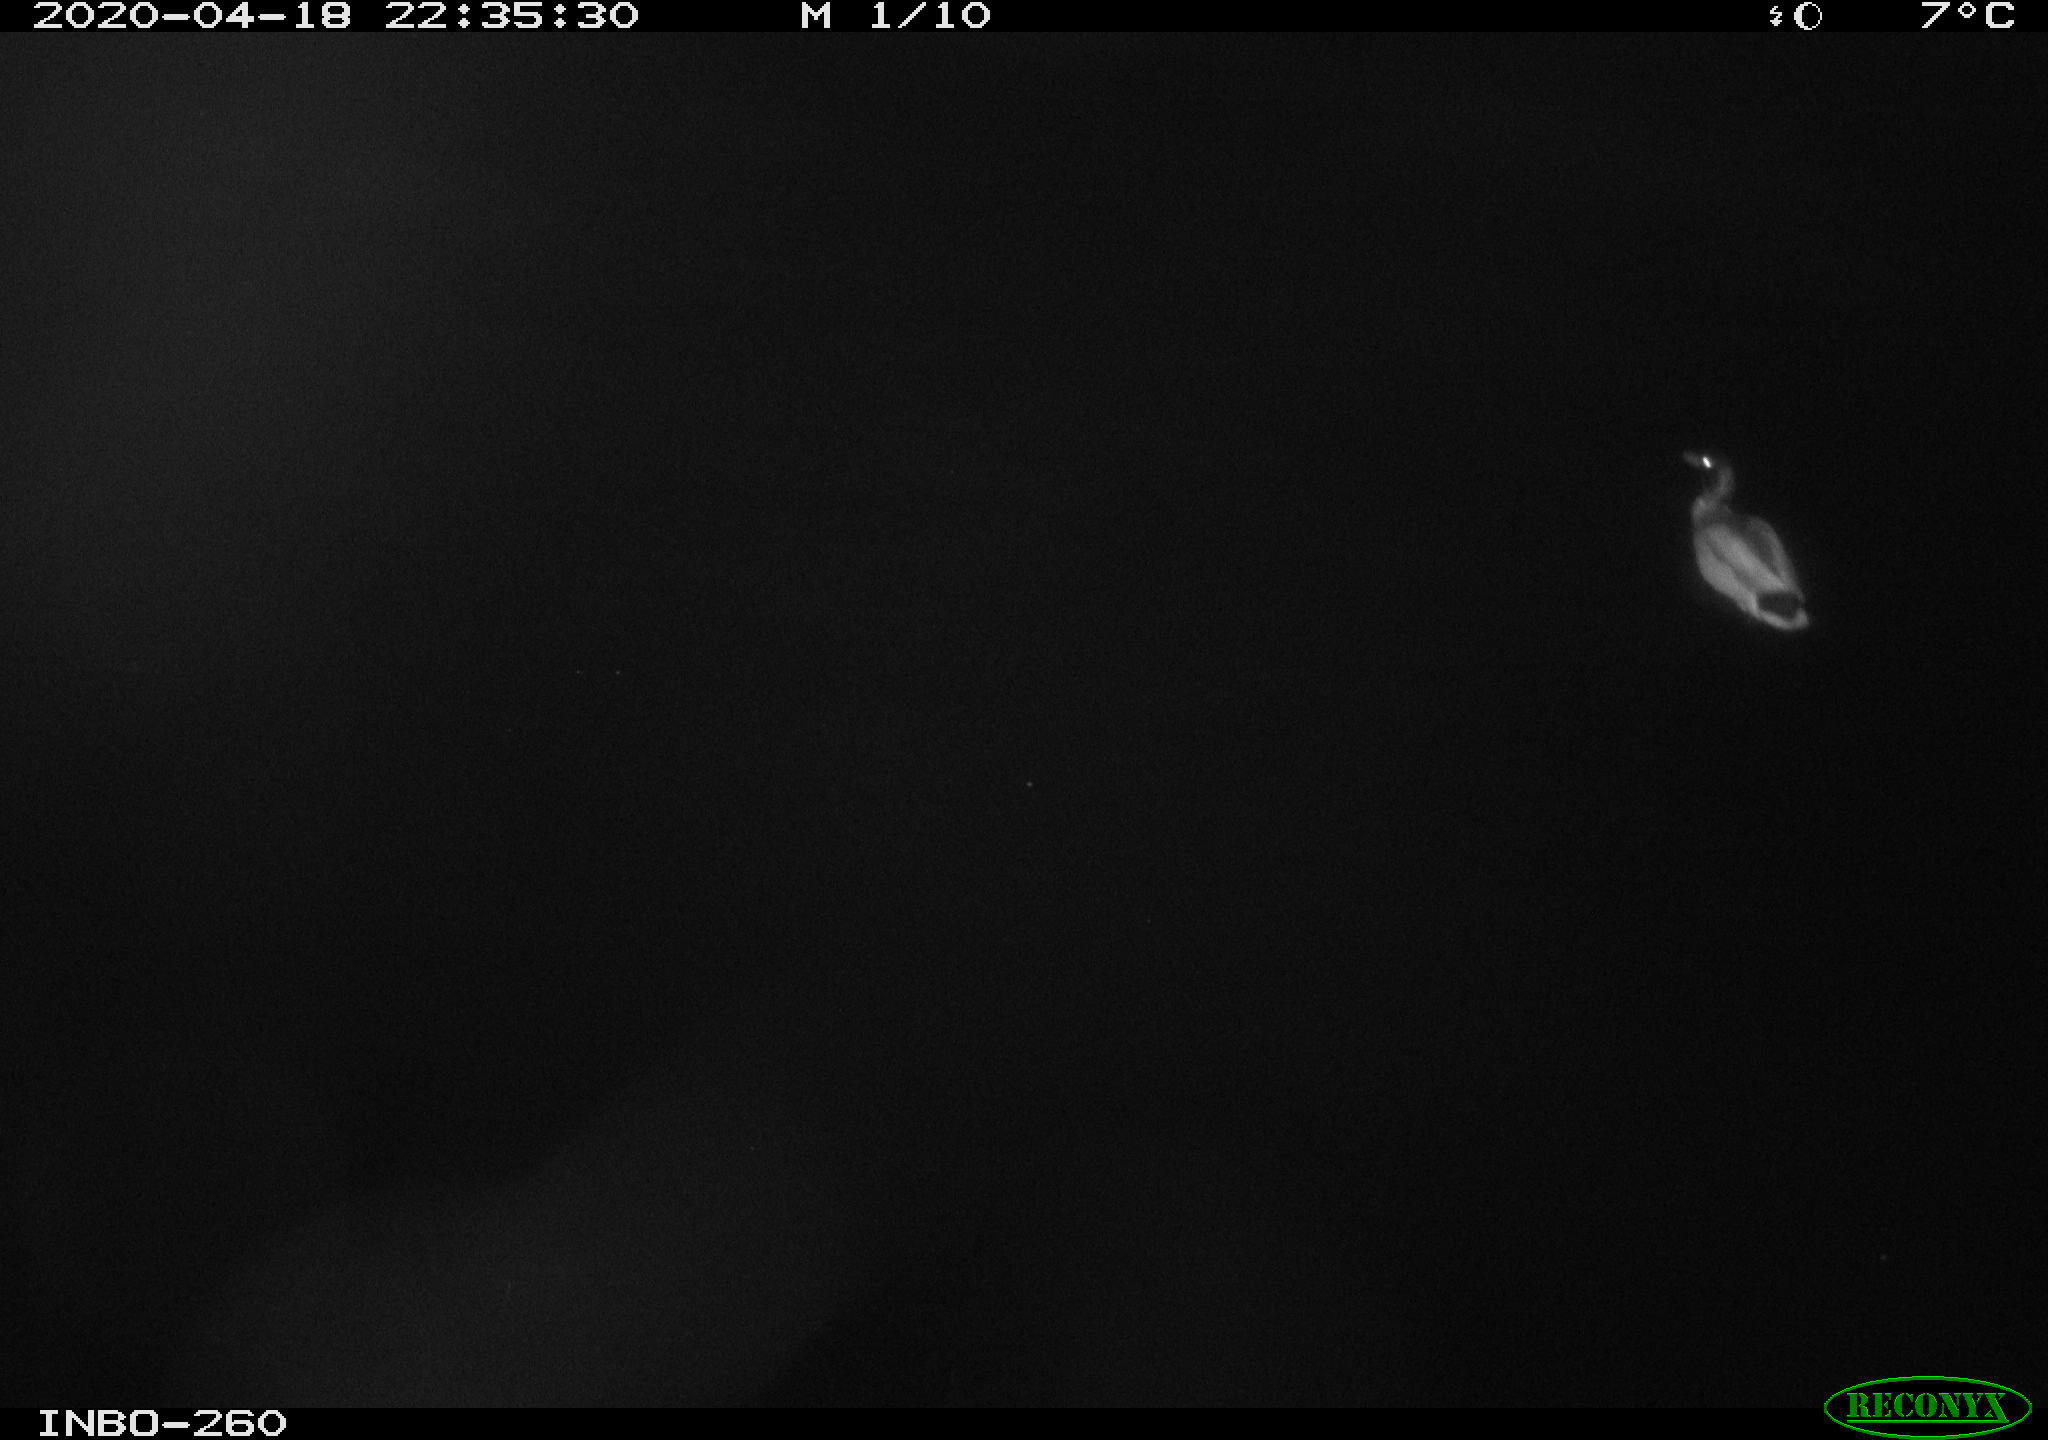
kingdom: Animalia
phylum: Chordata
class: Aves
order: Anseriformes
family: Anatidae
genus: Anas
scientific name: Anas platyrhynchos
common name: Mallard
